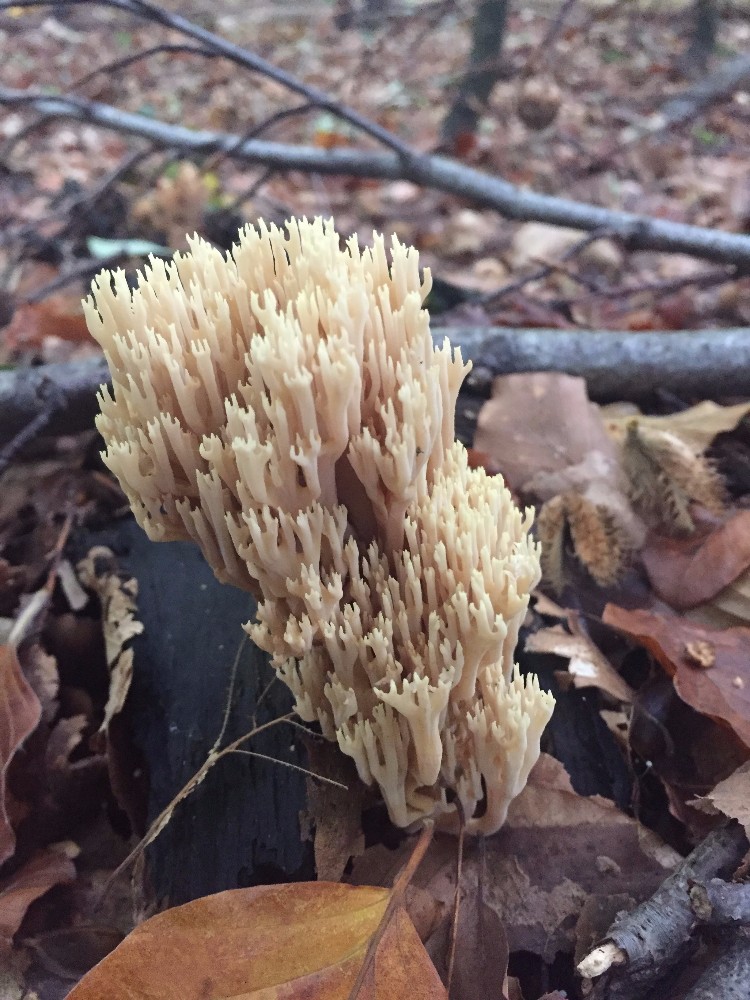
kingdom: Fungi
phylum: Basidiomycota
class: Agaricomycetes
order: Gomphales
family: Gomphaceae
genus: Ramaria
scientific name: Ramaria stricta
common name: rank koralsvamp
